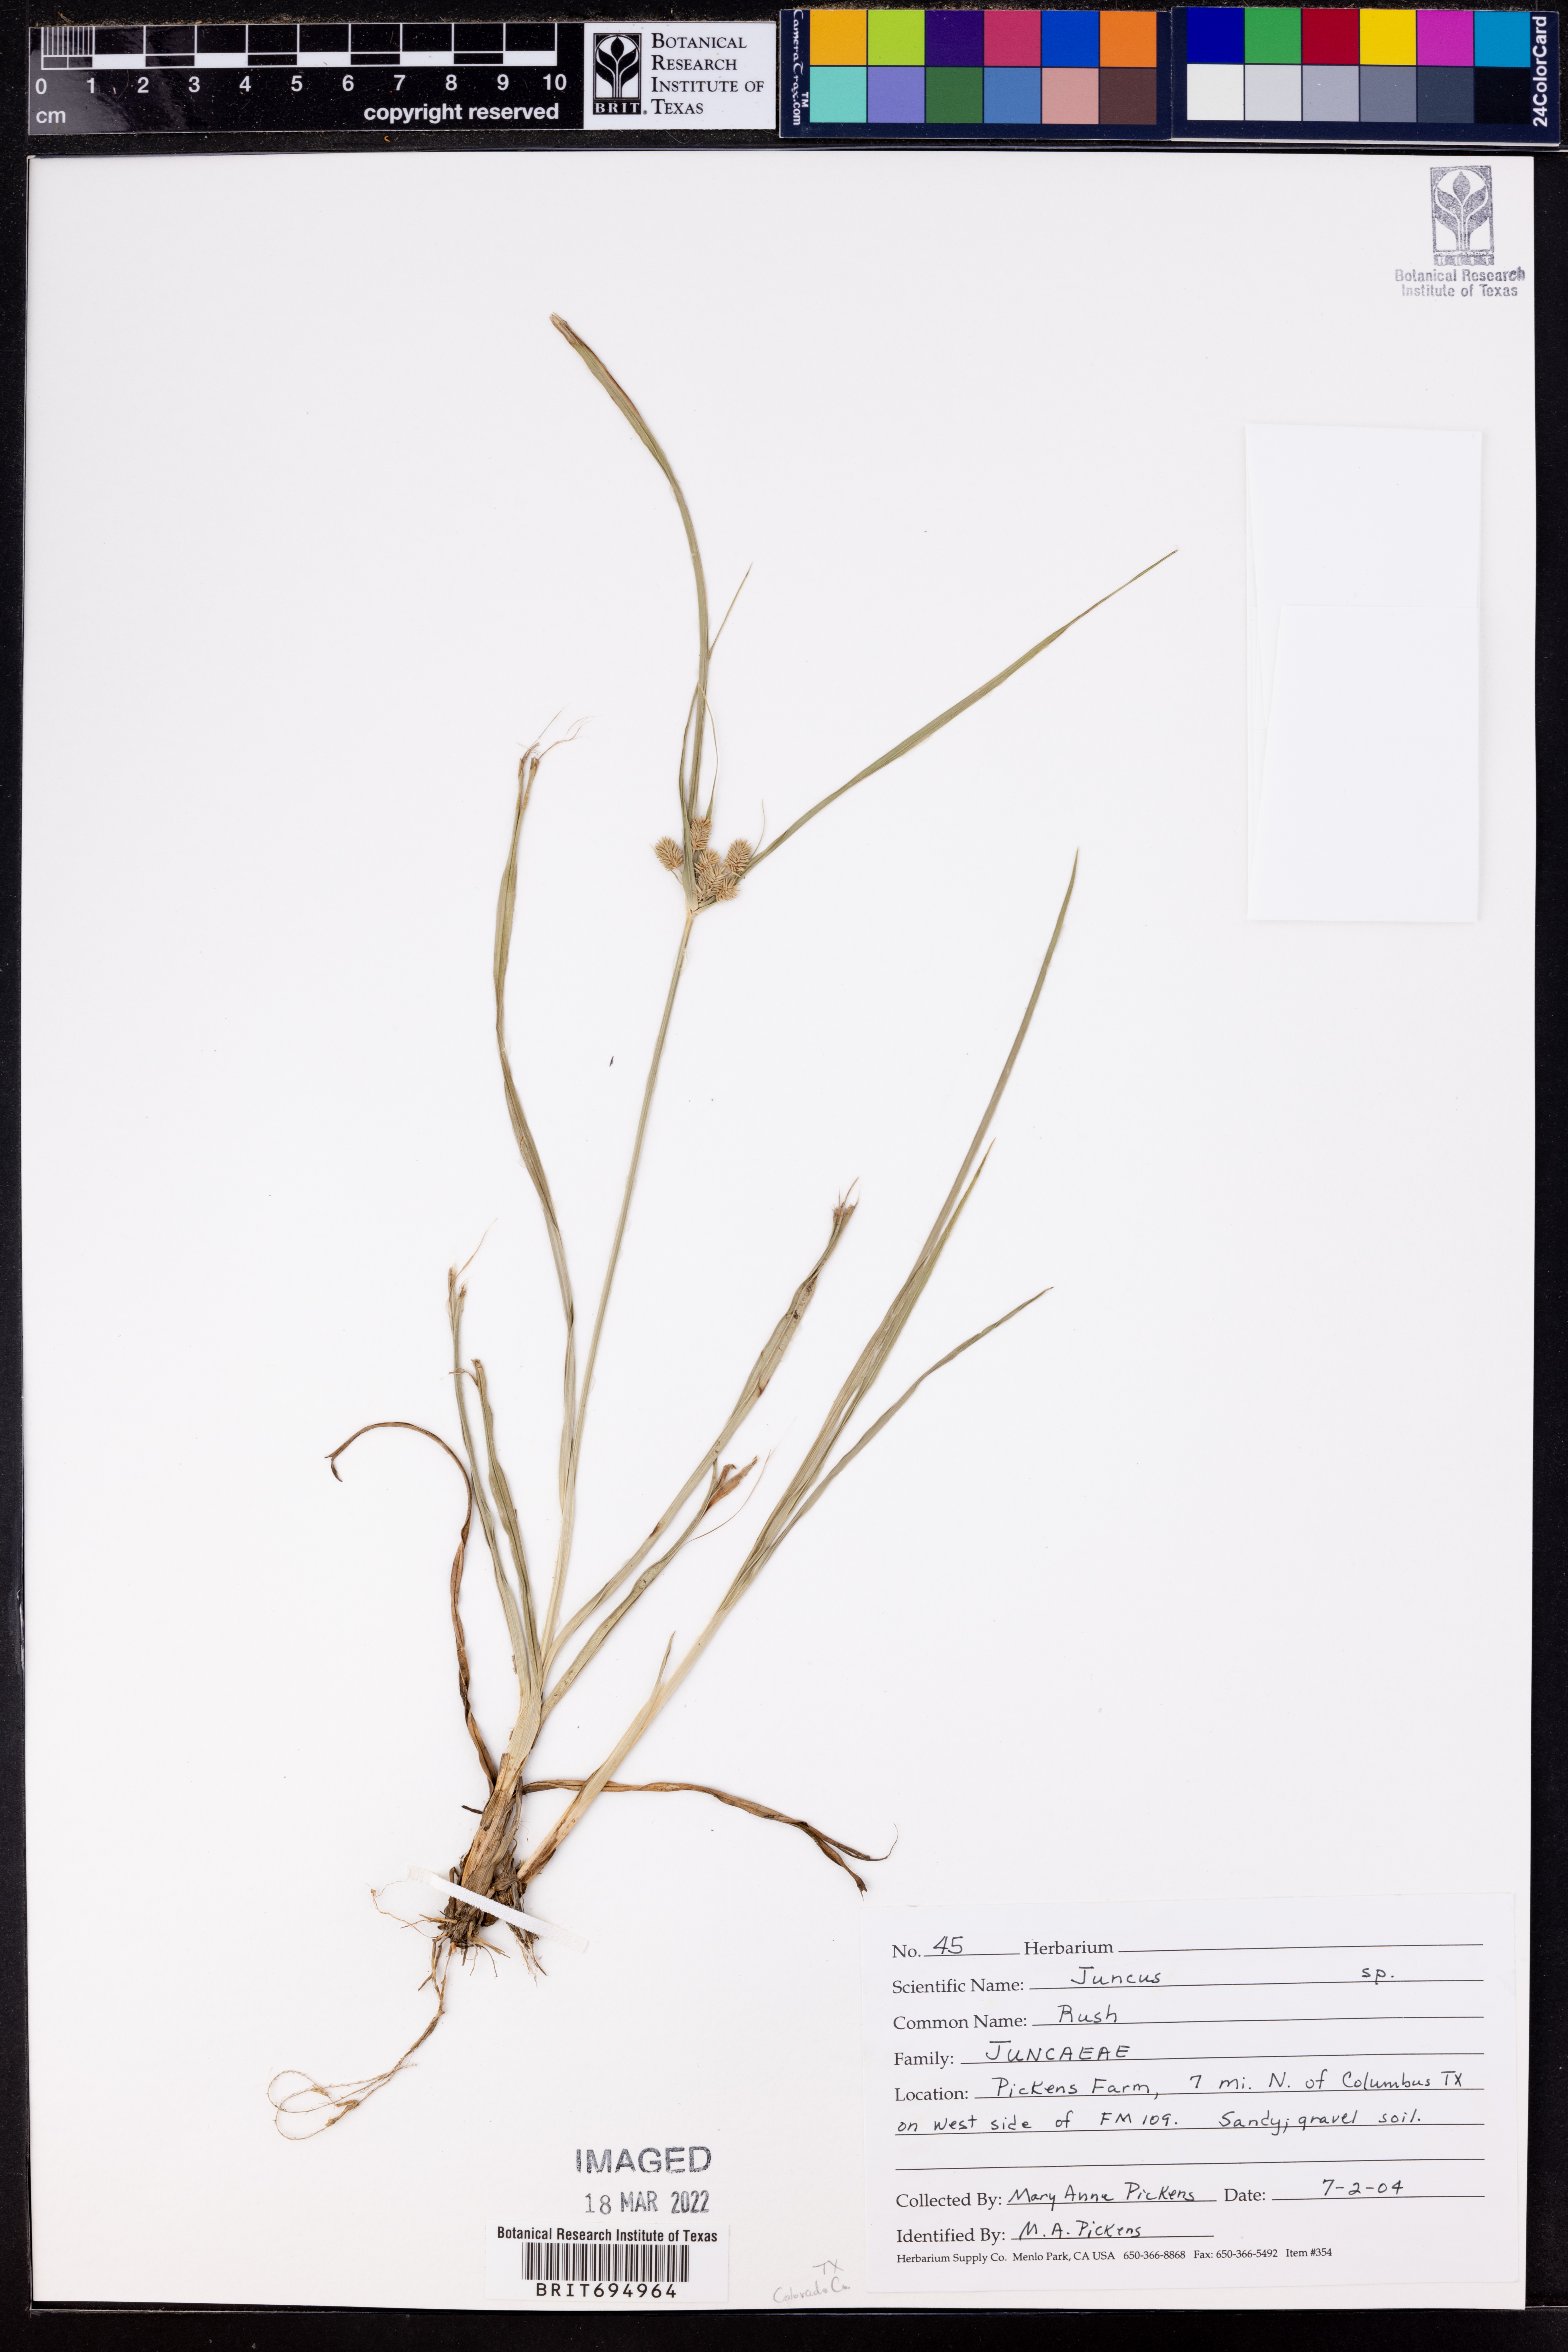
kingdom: Plantae
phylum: Tracheophyta
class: Liliopsida
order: Poales
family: Juncaceae
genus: Juncus
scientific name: Juncus
